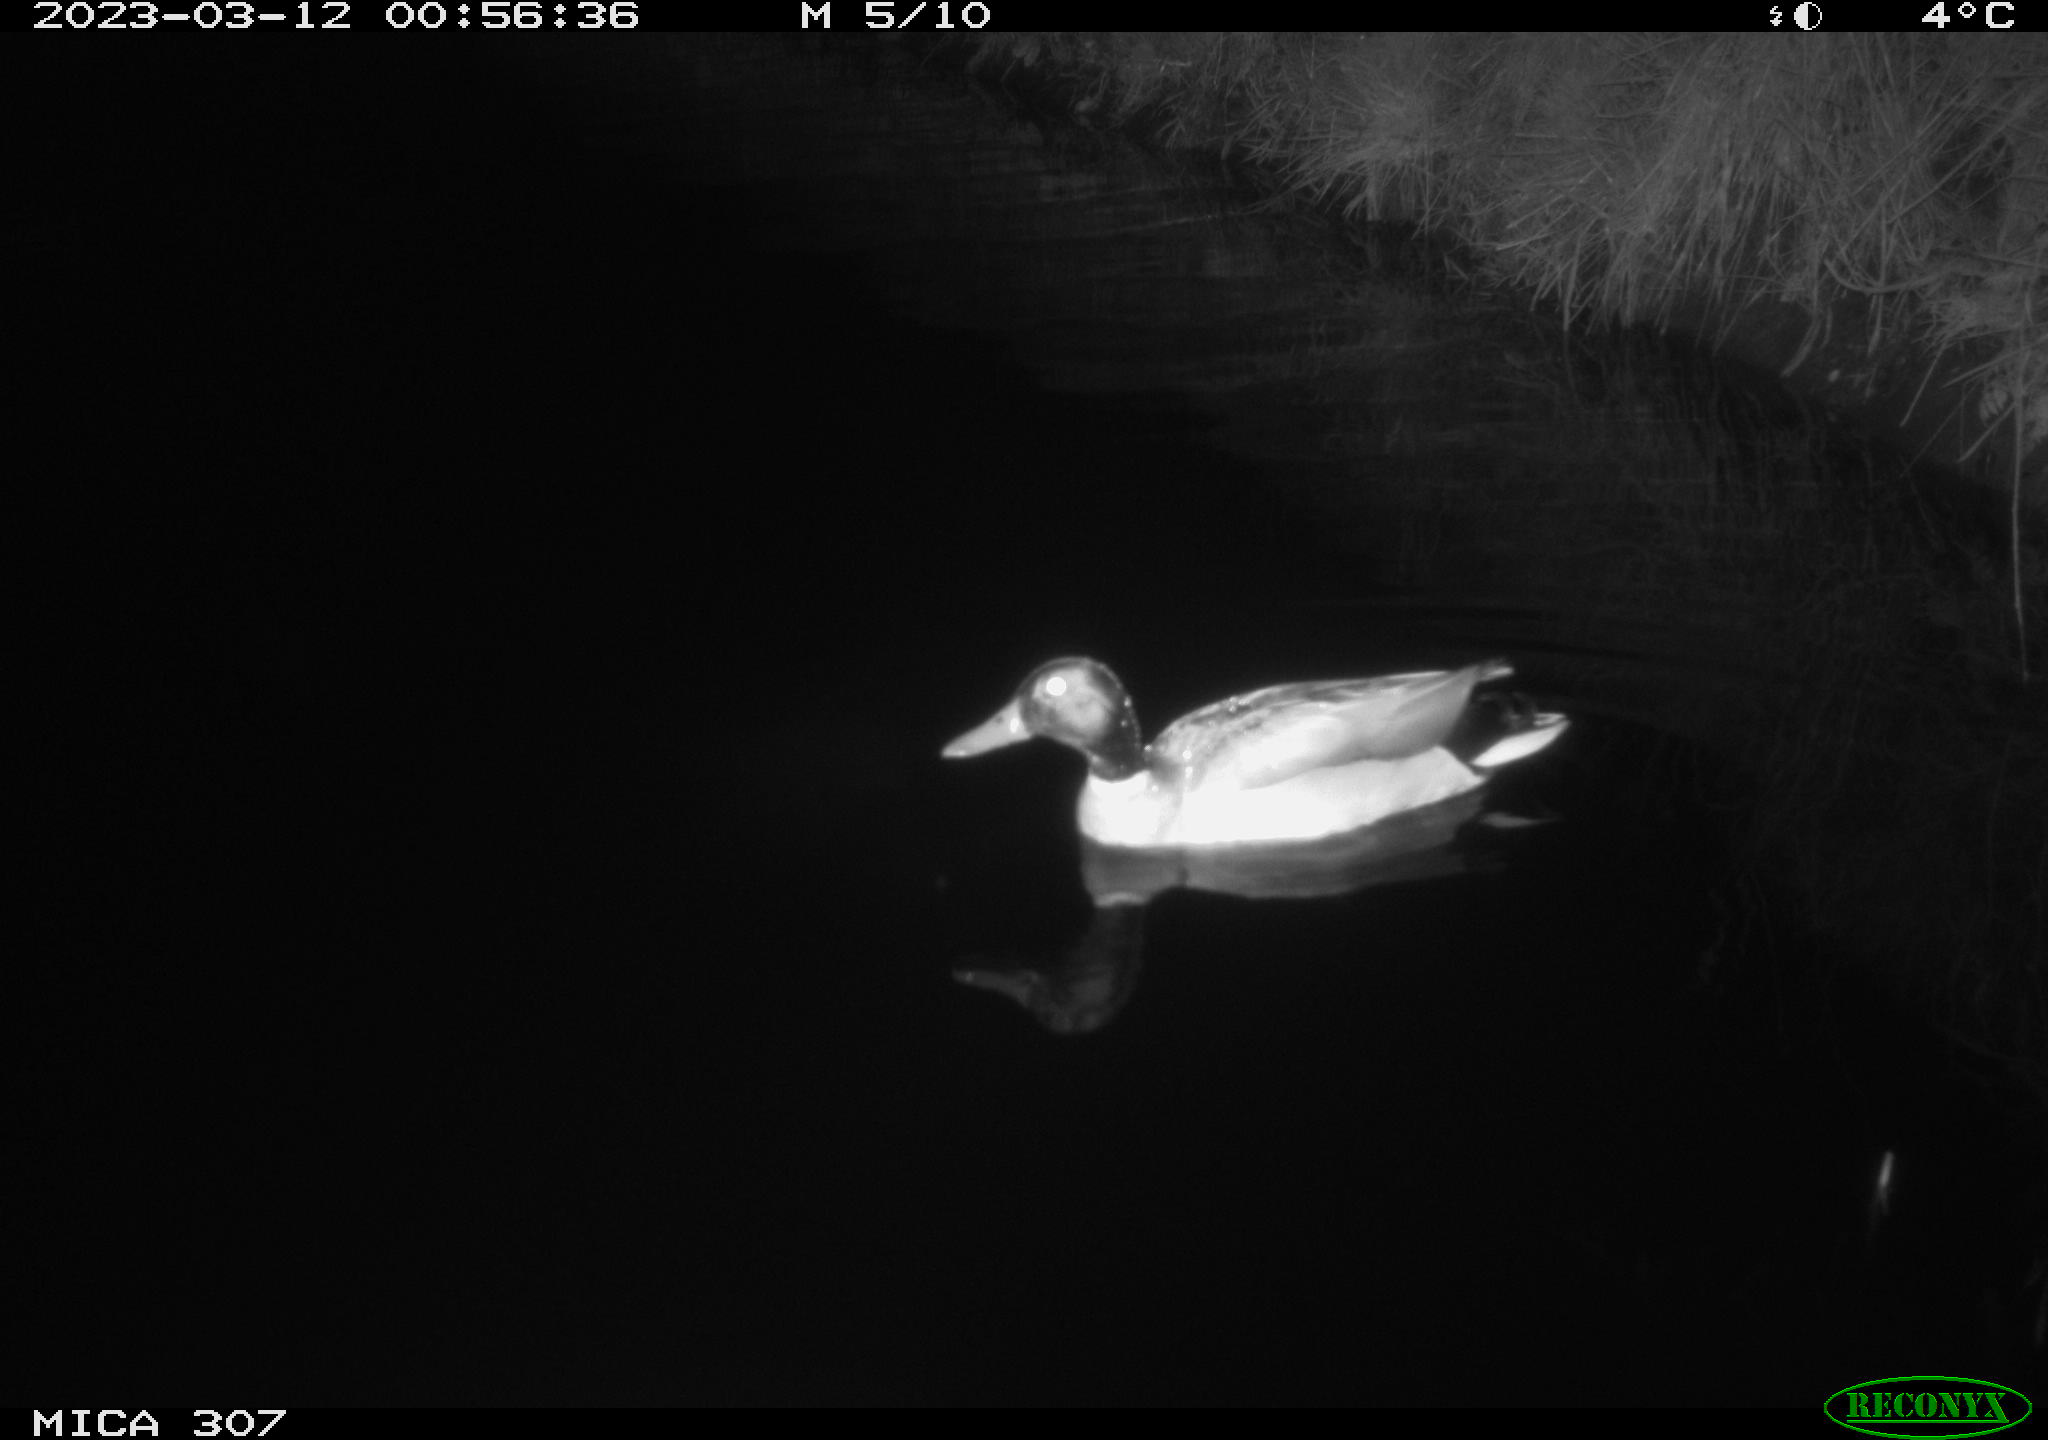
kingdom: Animalia
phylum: Chordata
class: Aves
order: Anseriformes
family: Anatidae
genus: Anas
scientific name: Anas
